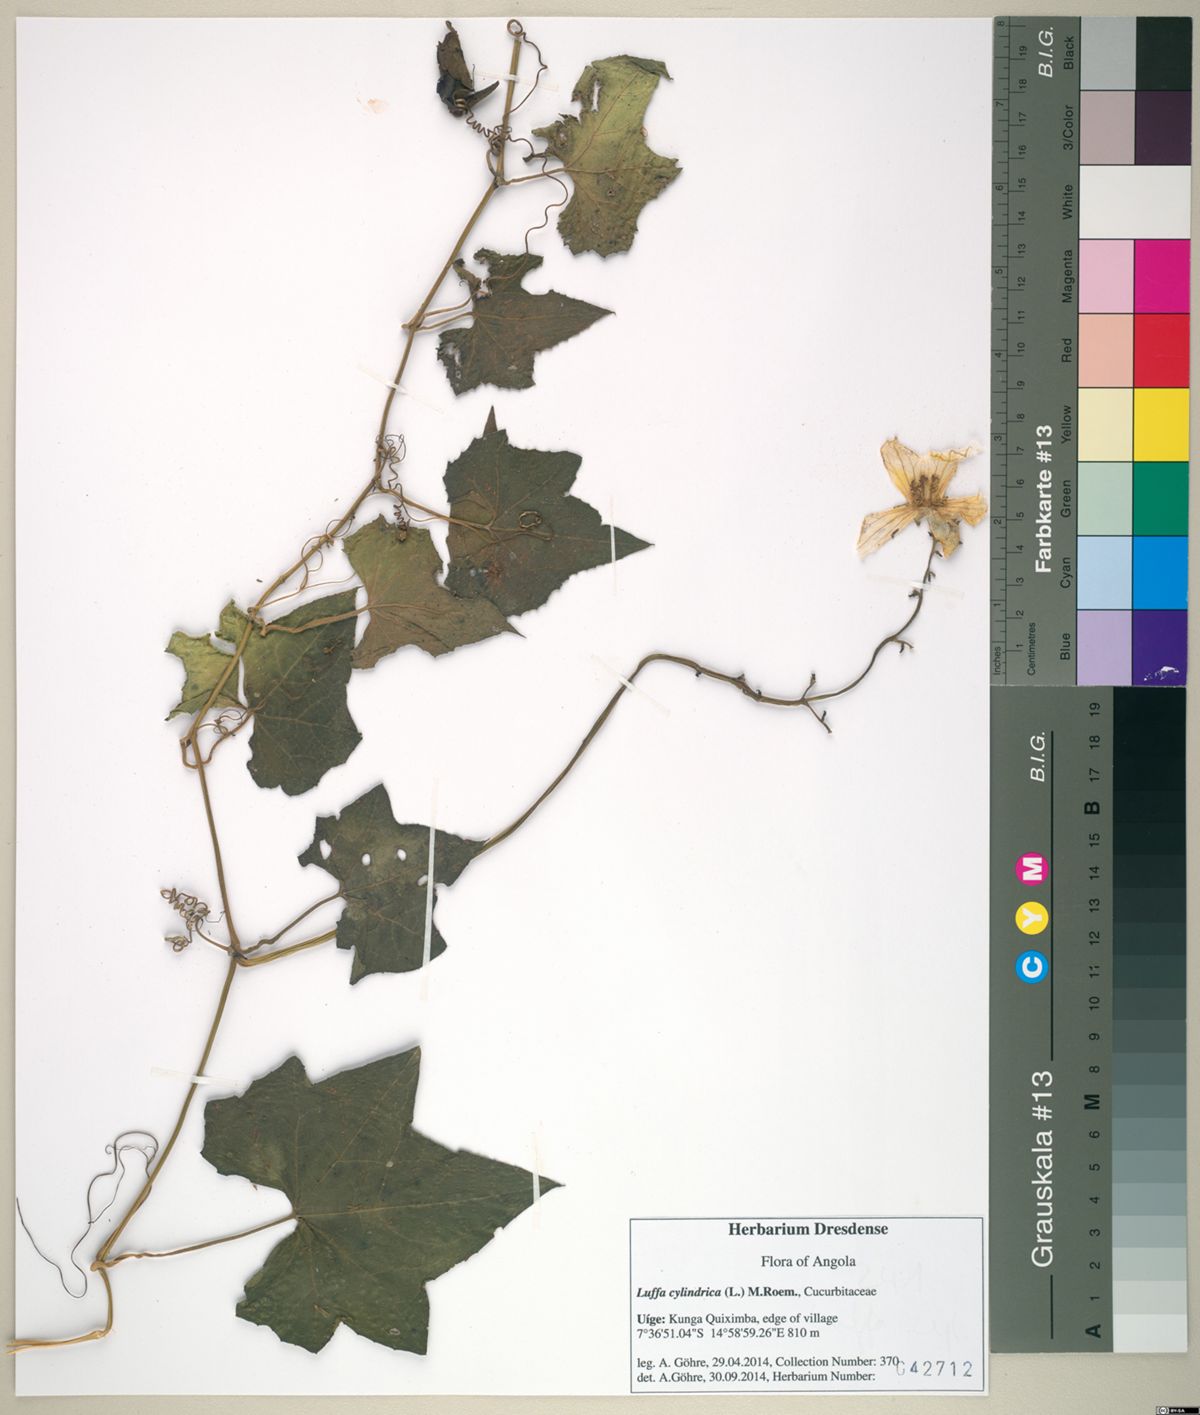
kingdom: Plantae
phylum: Tracheophyta
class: Magnoliopsida
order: Cucurbitales
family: Cucurbitaceae
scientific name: Cucurbitaceae
